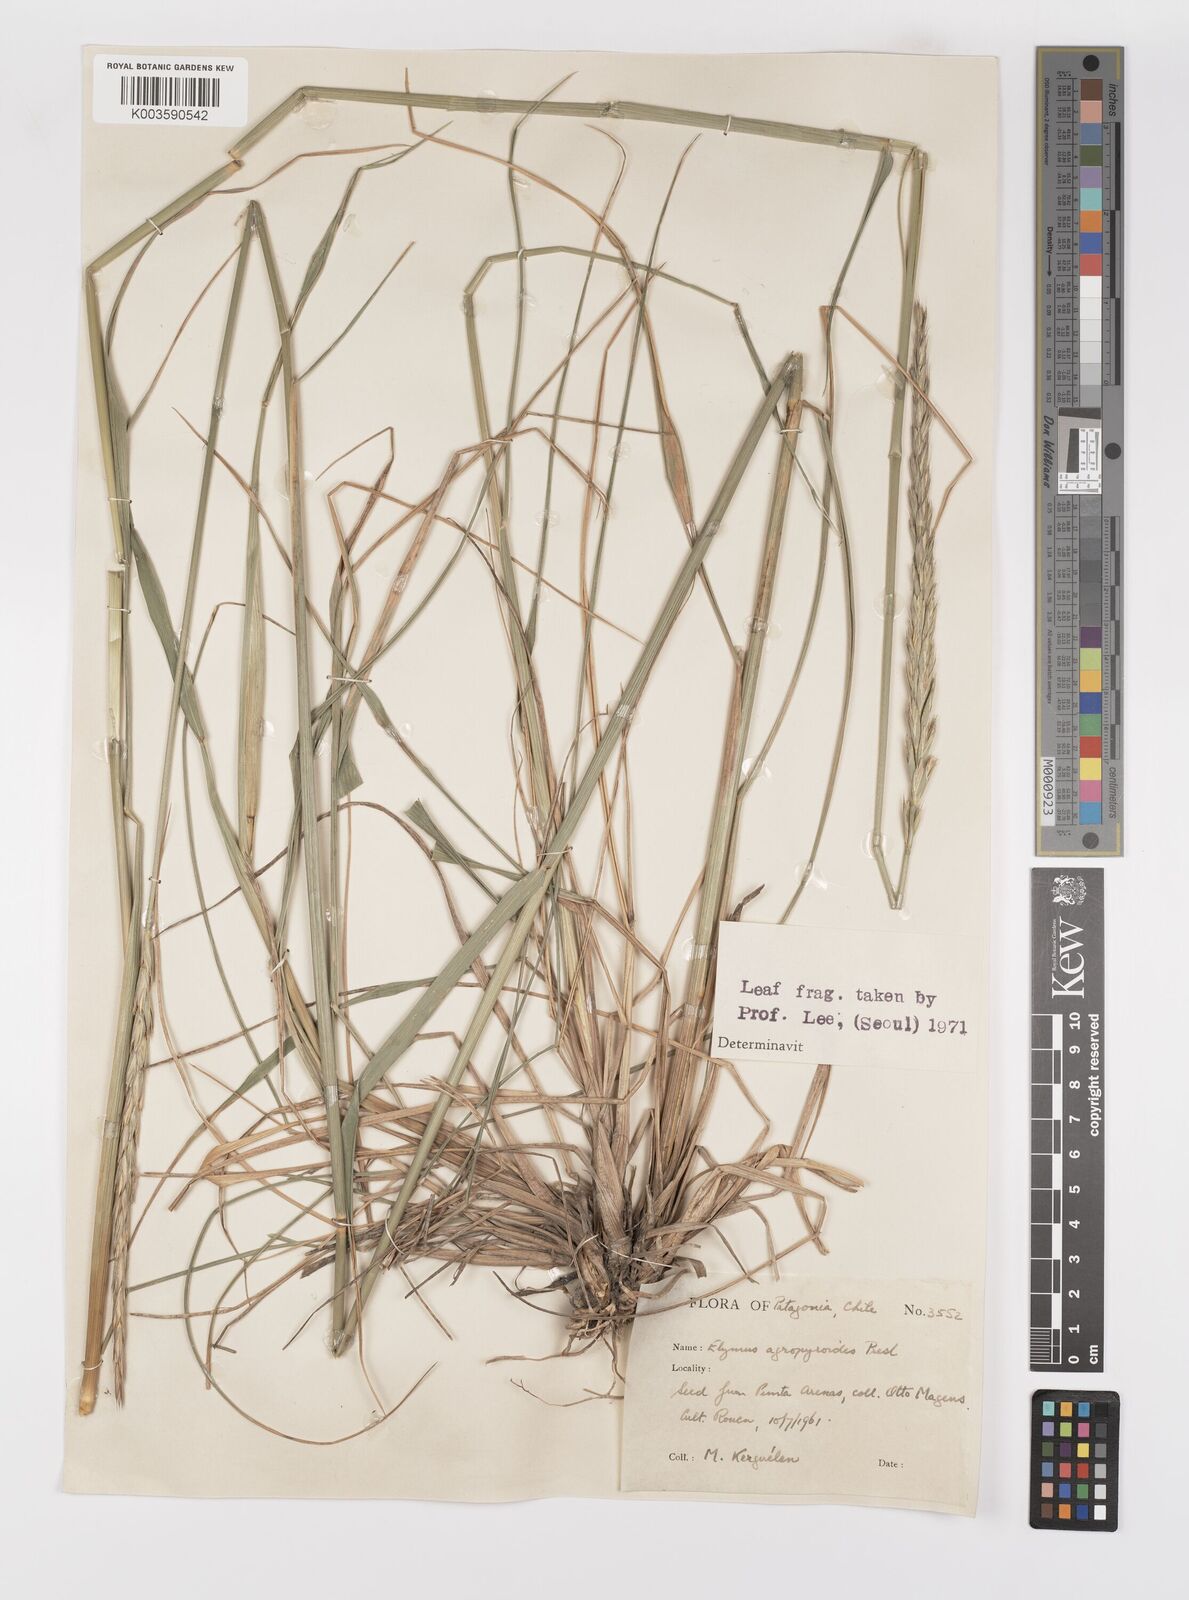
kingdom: Plantae
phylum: Tracheophyta
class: Liliopsida
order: Poales
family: Poaceae
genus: Elymus
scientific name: Elymus angulatus
